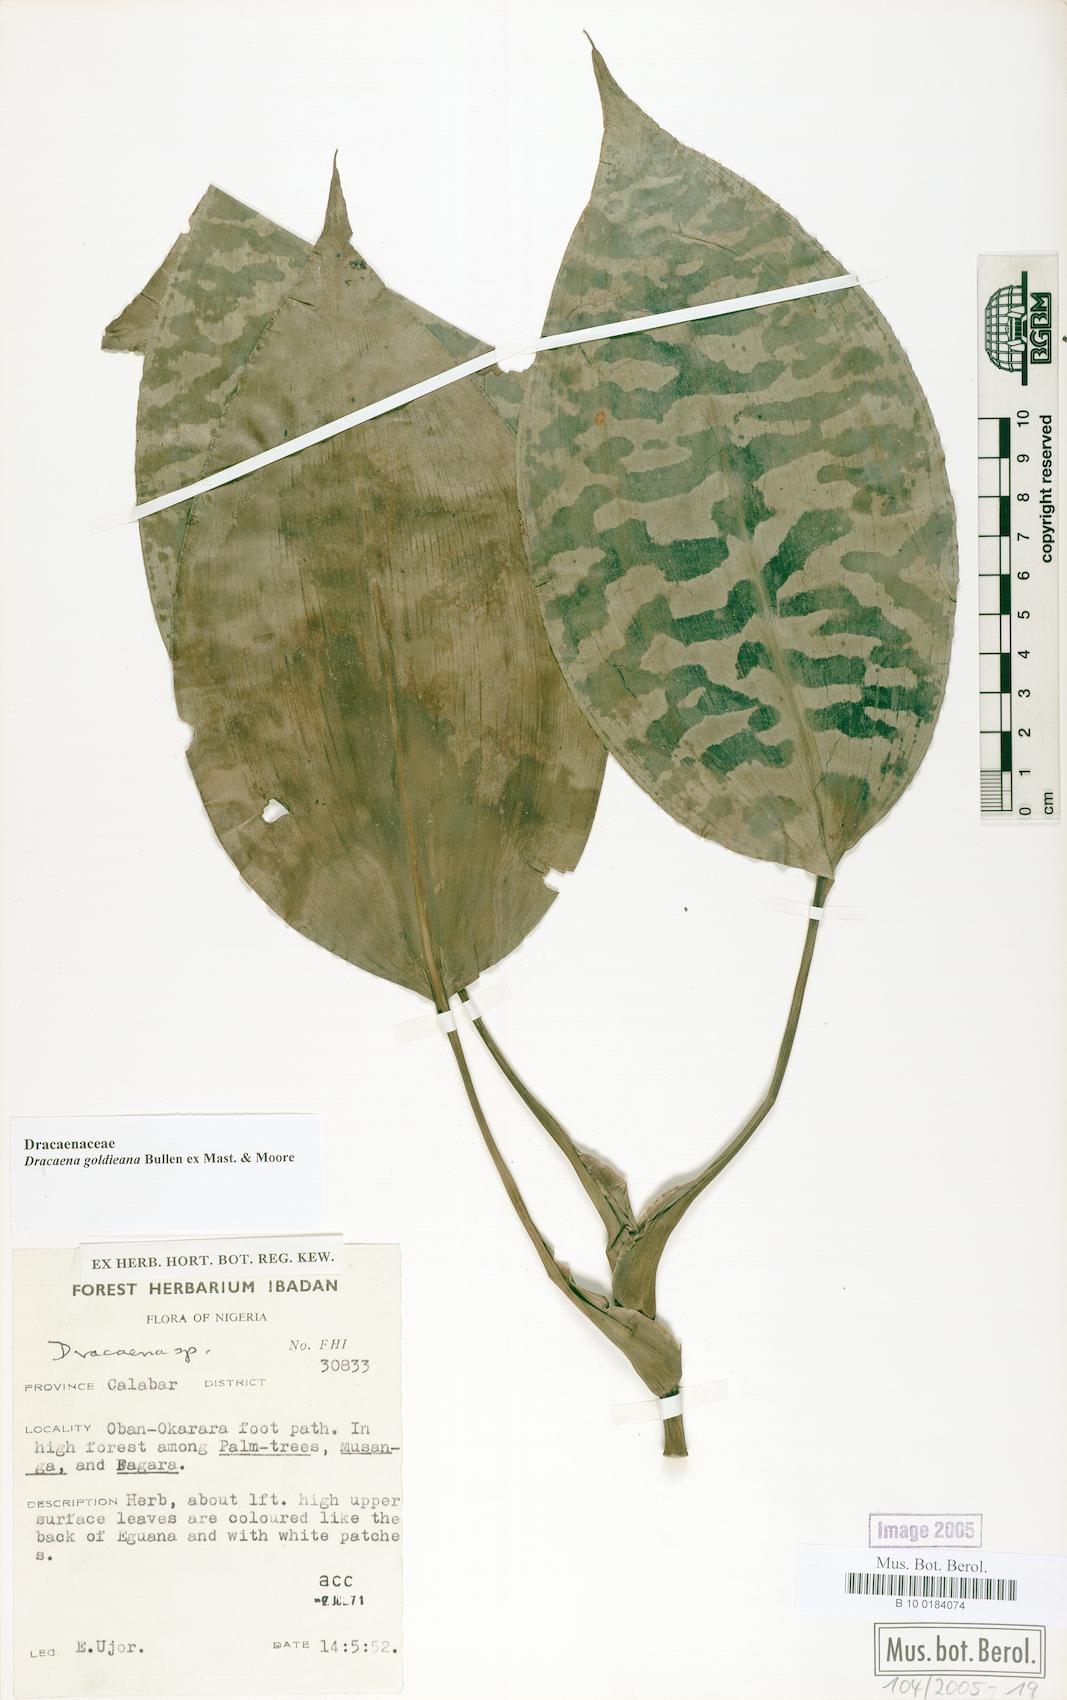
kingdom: Plantae
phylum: Tracheophyta
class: Liliopsida
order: Asparagales
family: Asparagaceae
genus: Dracaena
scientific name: Dracaena goldieana
